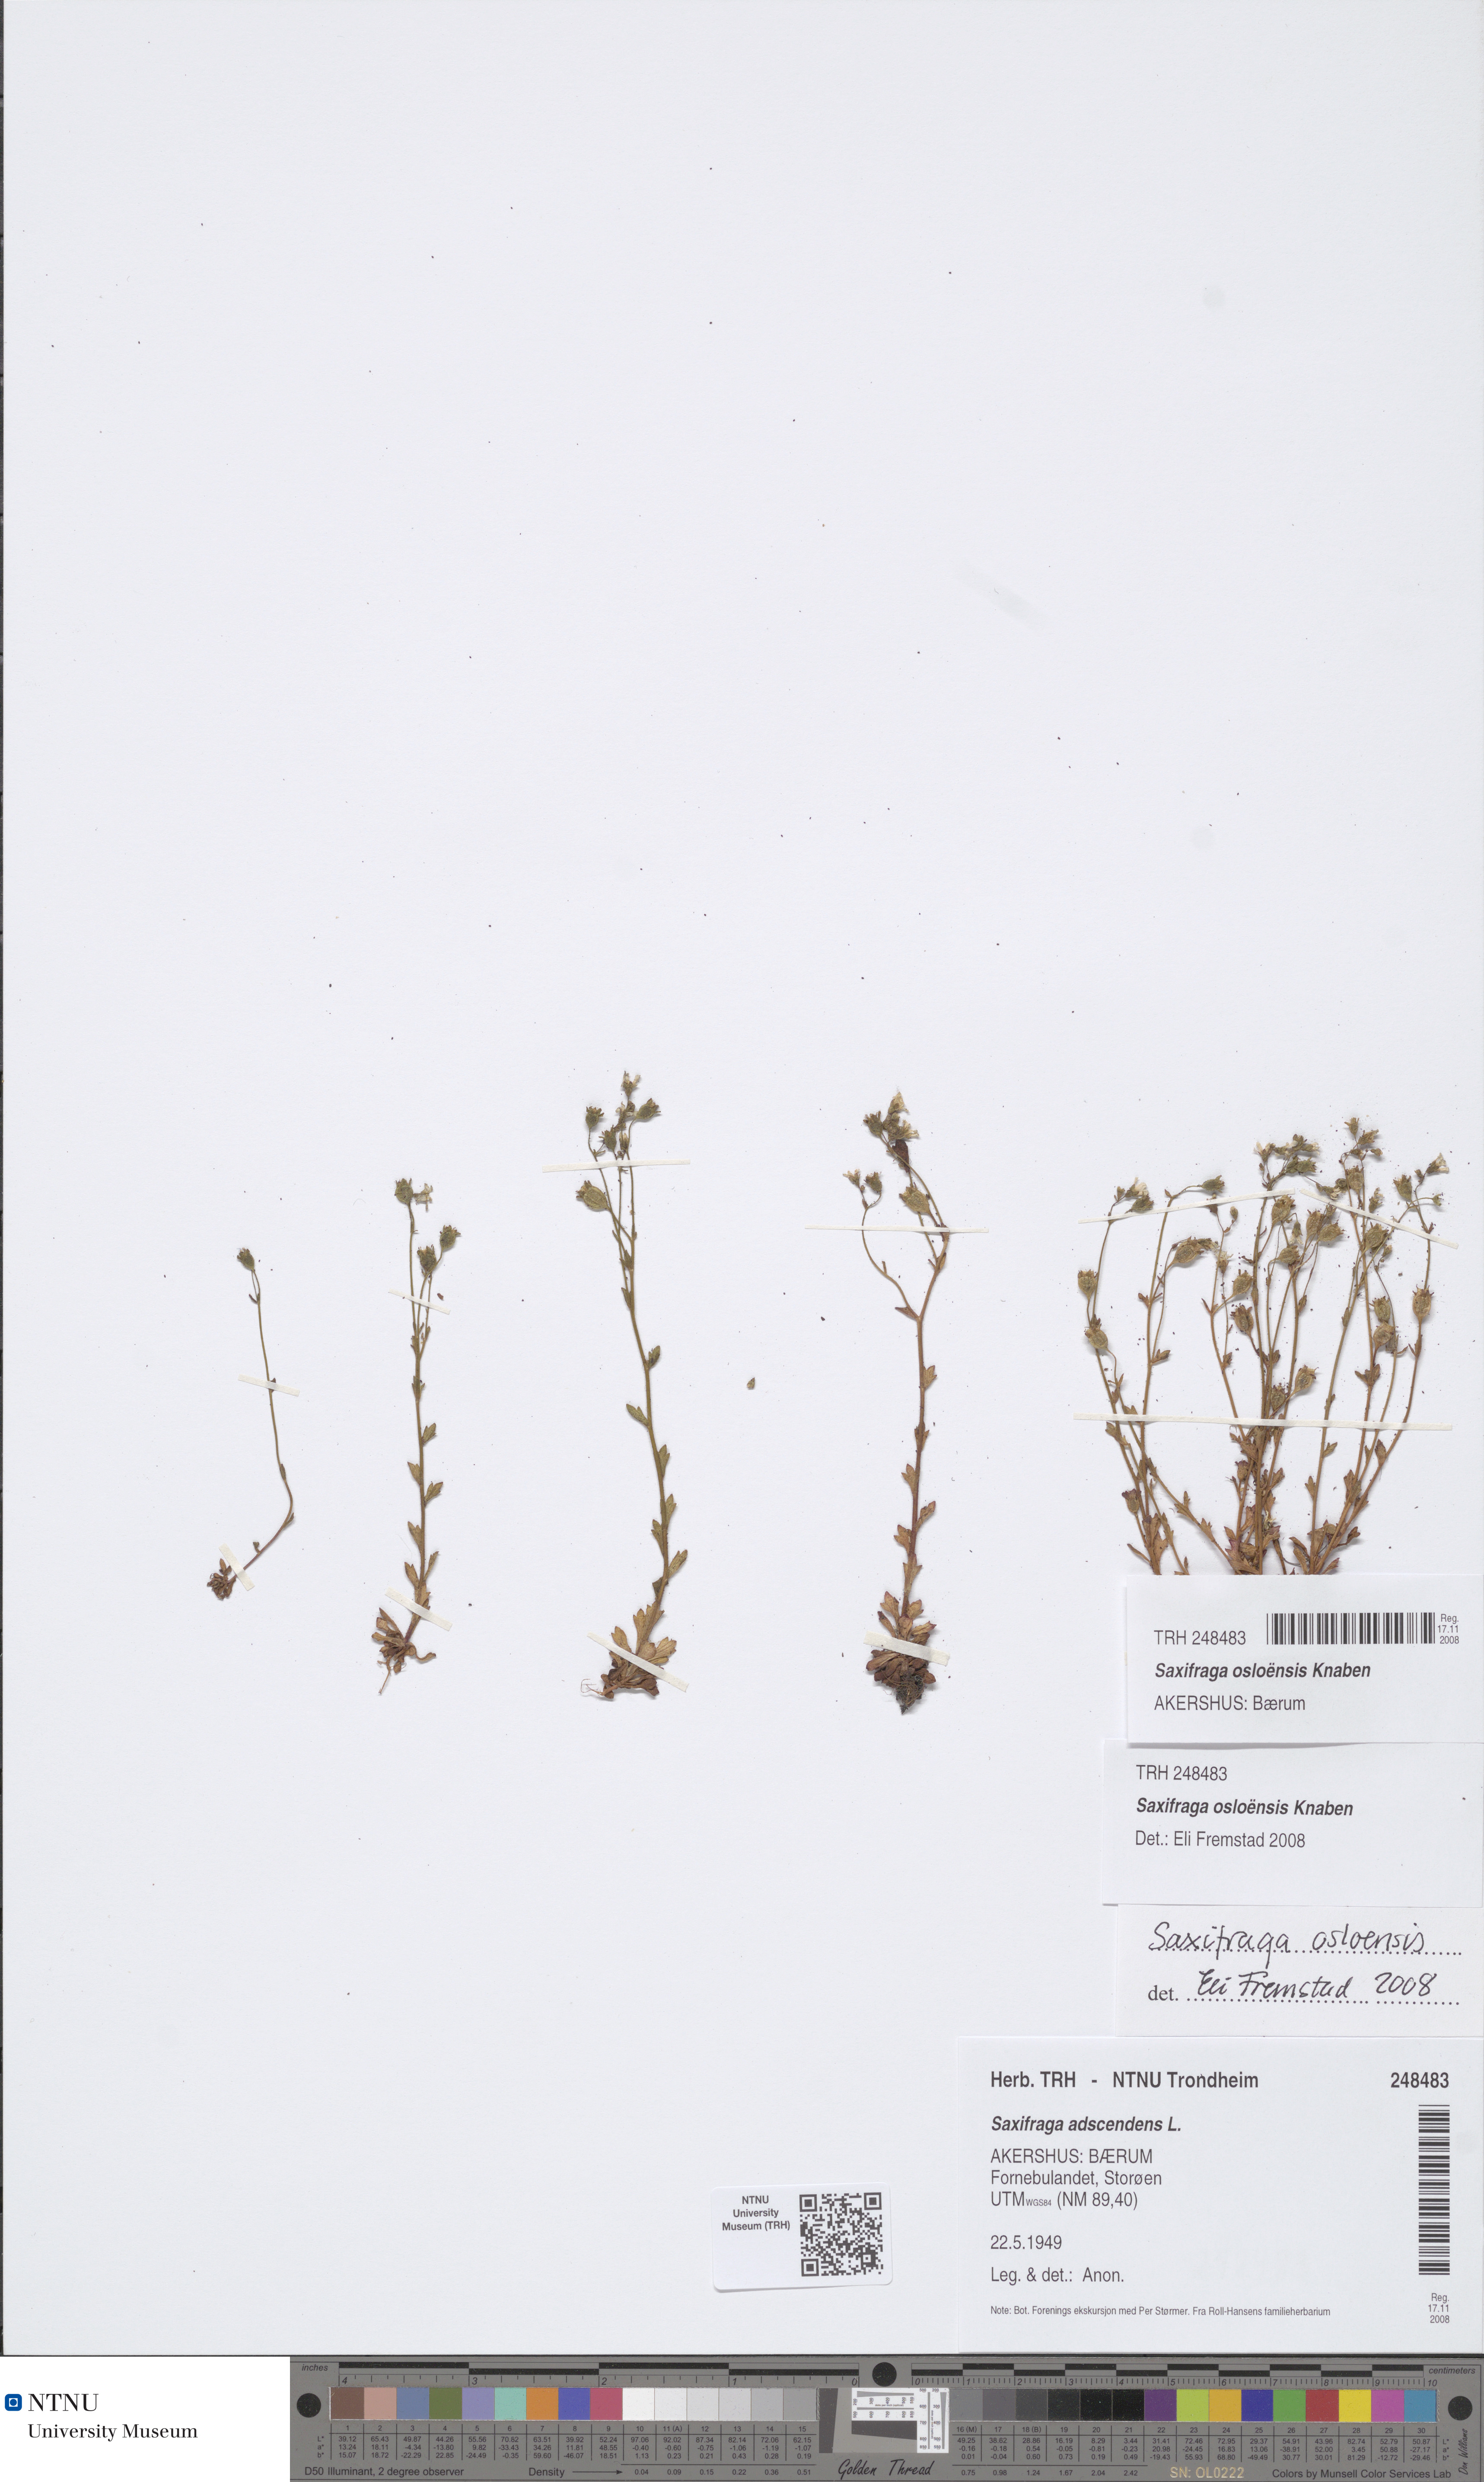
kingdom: Plantae
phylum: Tracheophyta
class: Magnoliopsida
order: Saxifragales
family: Saxifragaceae
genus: Saxifraga
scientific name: Saxifraga osloensis
